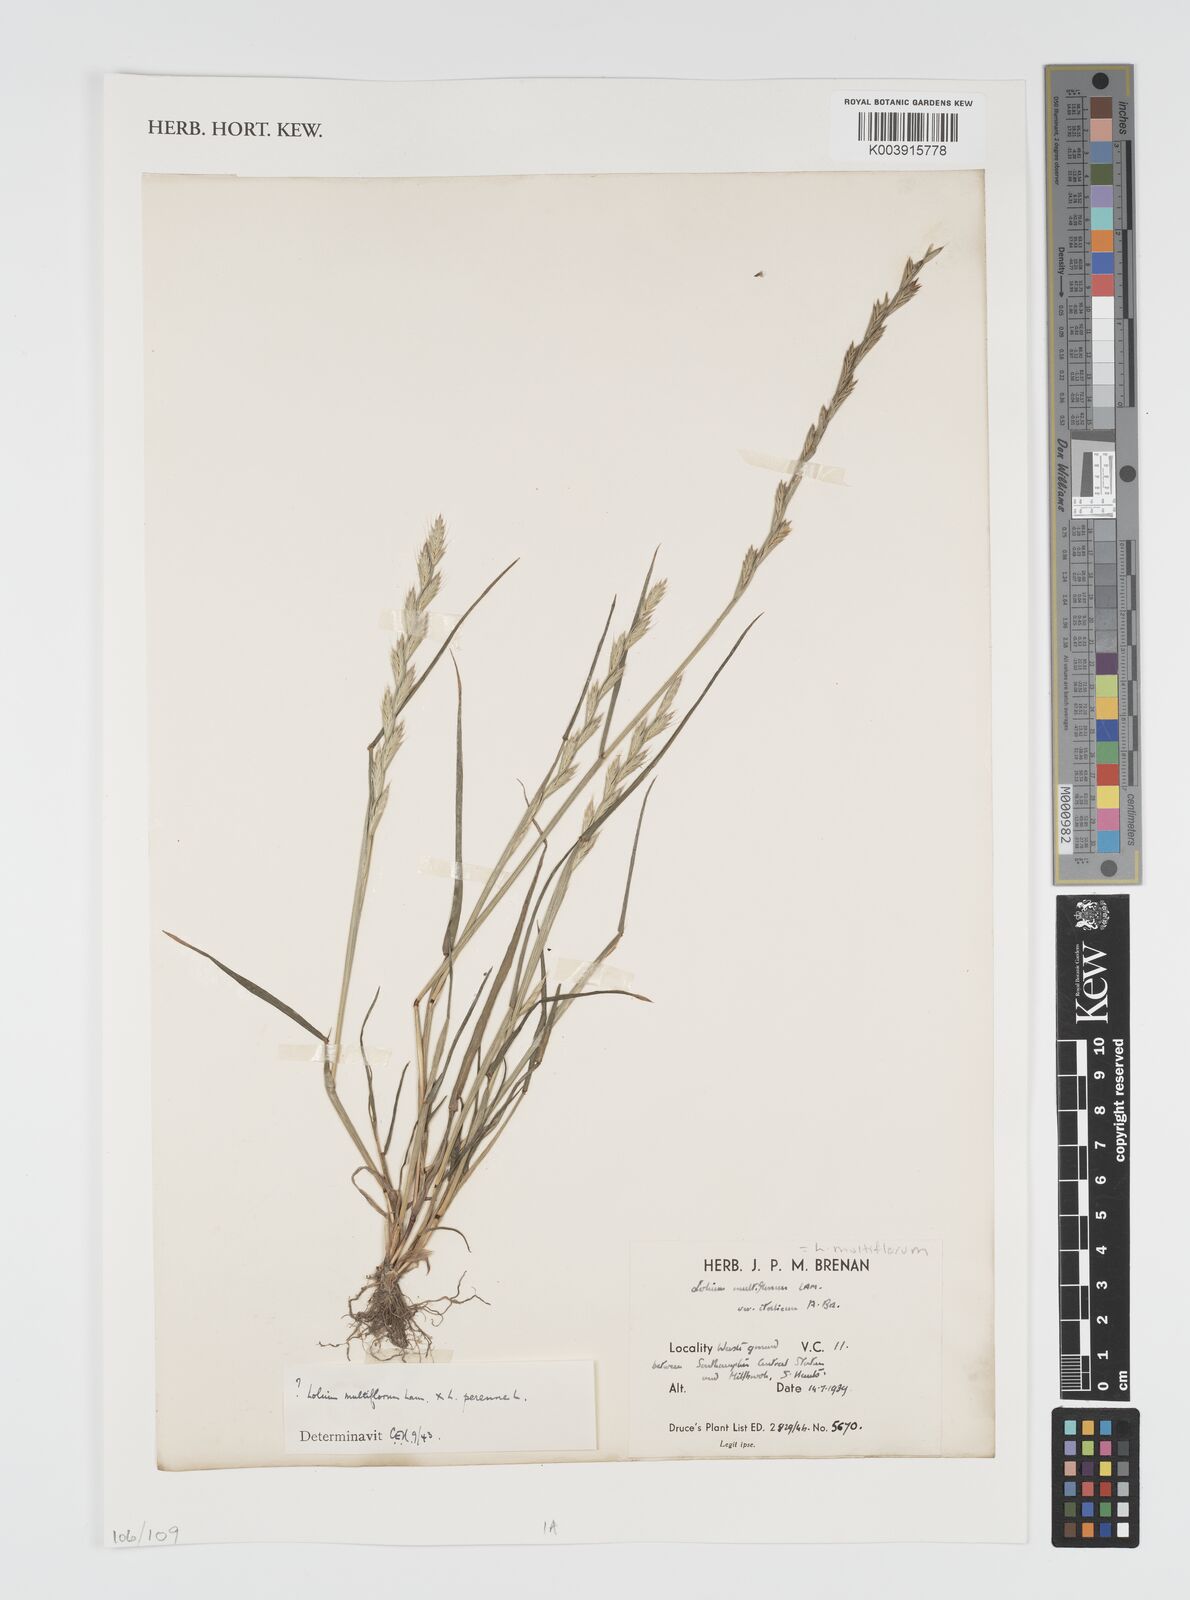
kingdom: Plantae
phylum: Tracheophyta
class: Liliopsida
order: Poales
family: Poaceae
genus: Lolium
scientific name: Lolium multiflorum
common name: Annual ryegrass
